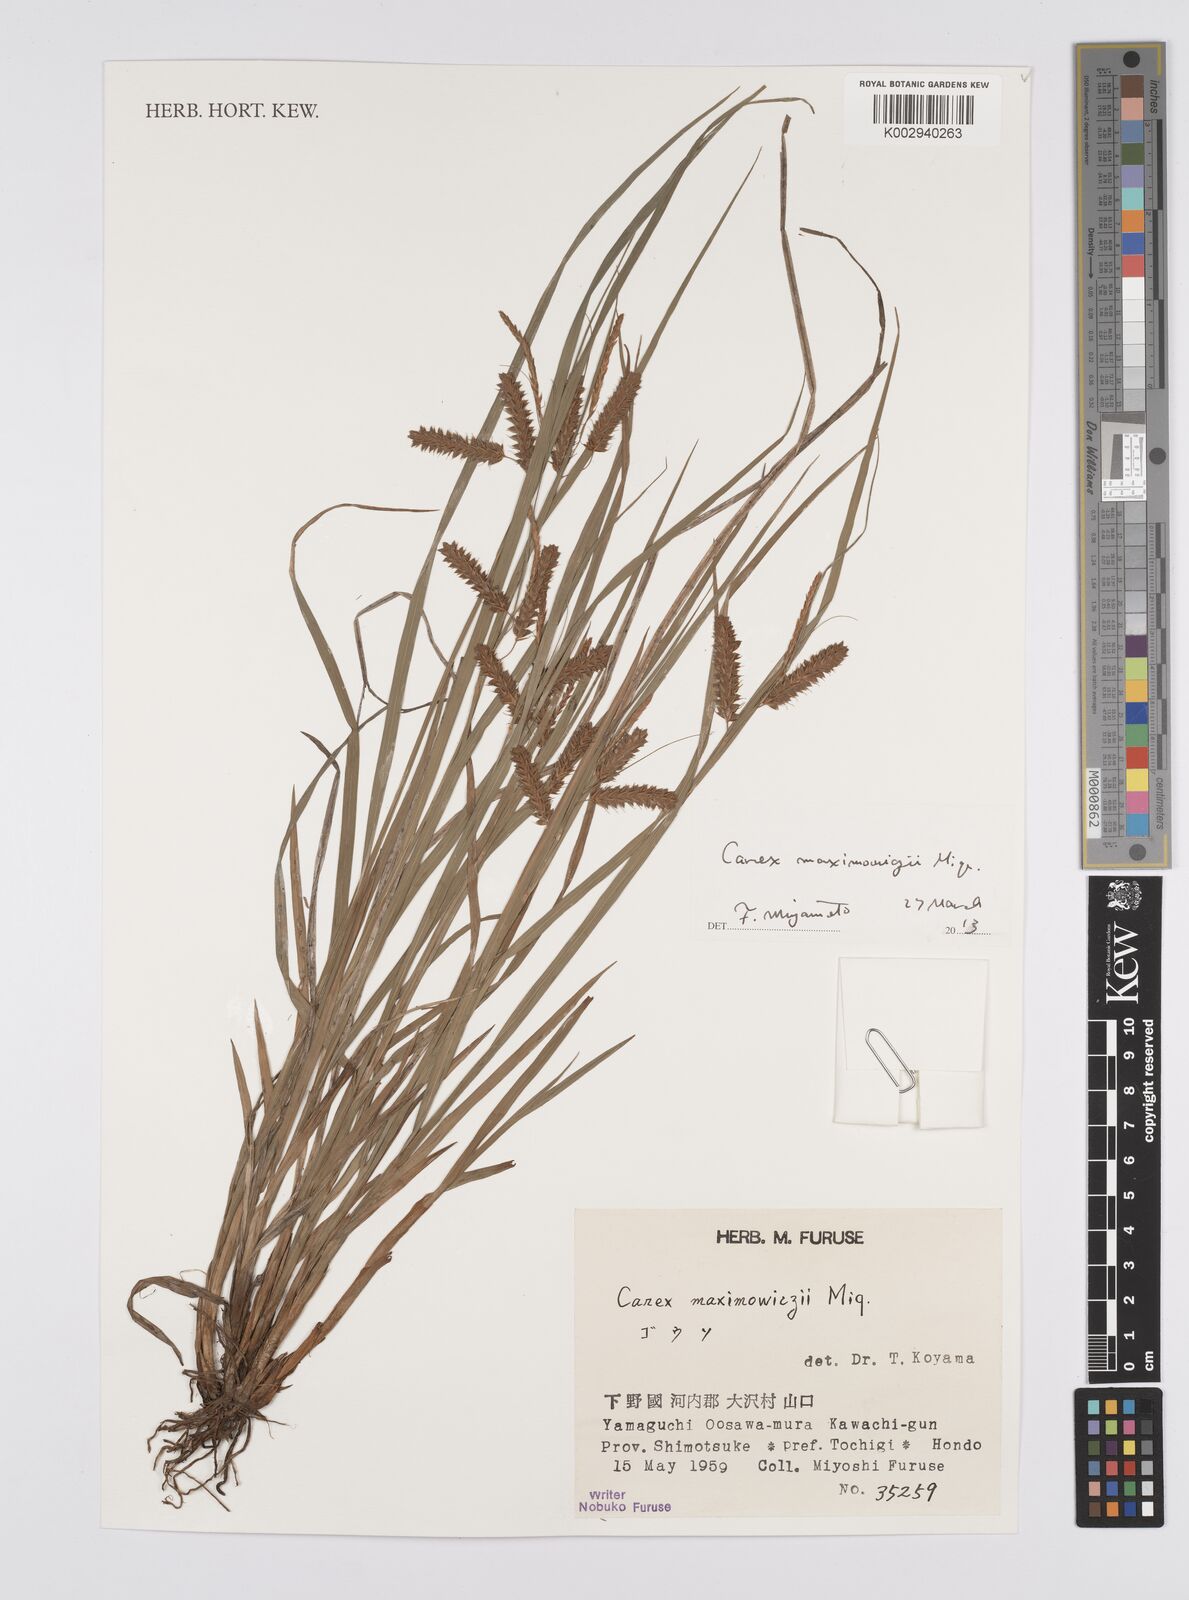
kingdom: Plantae
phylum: Tracheophyta
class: Liliopsida
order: Poales
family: Cyperaceae
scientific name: Cyperaceae
